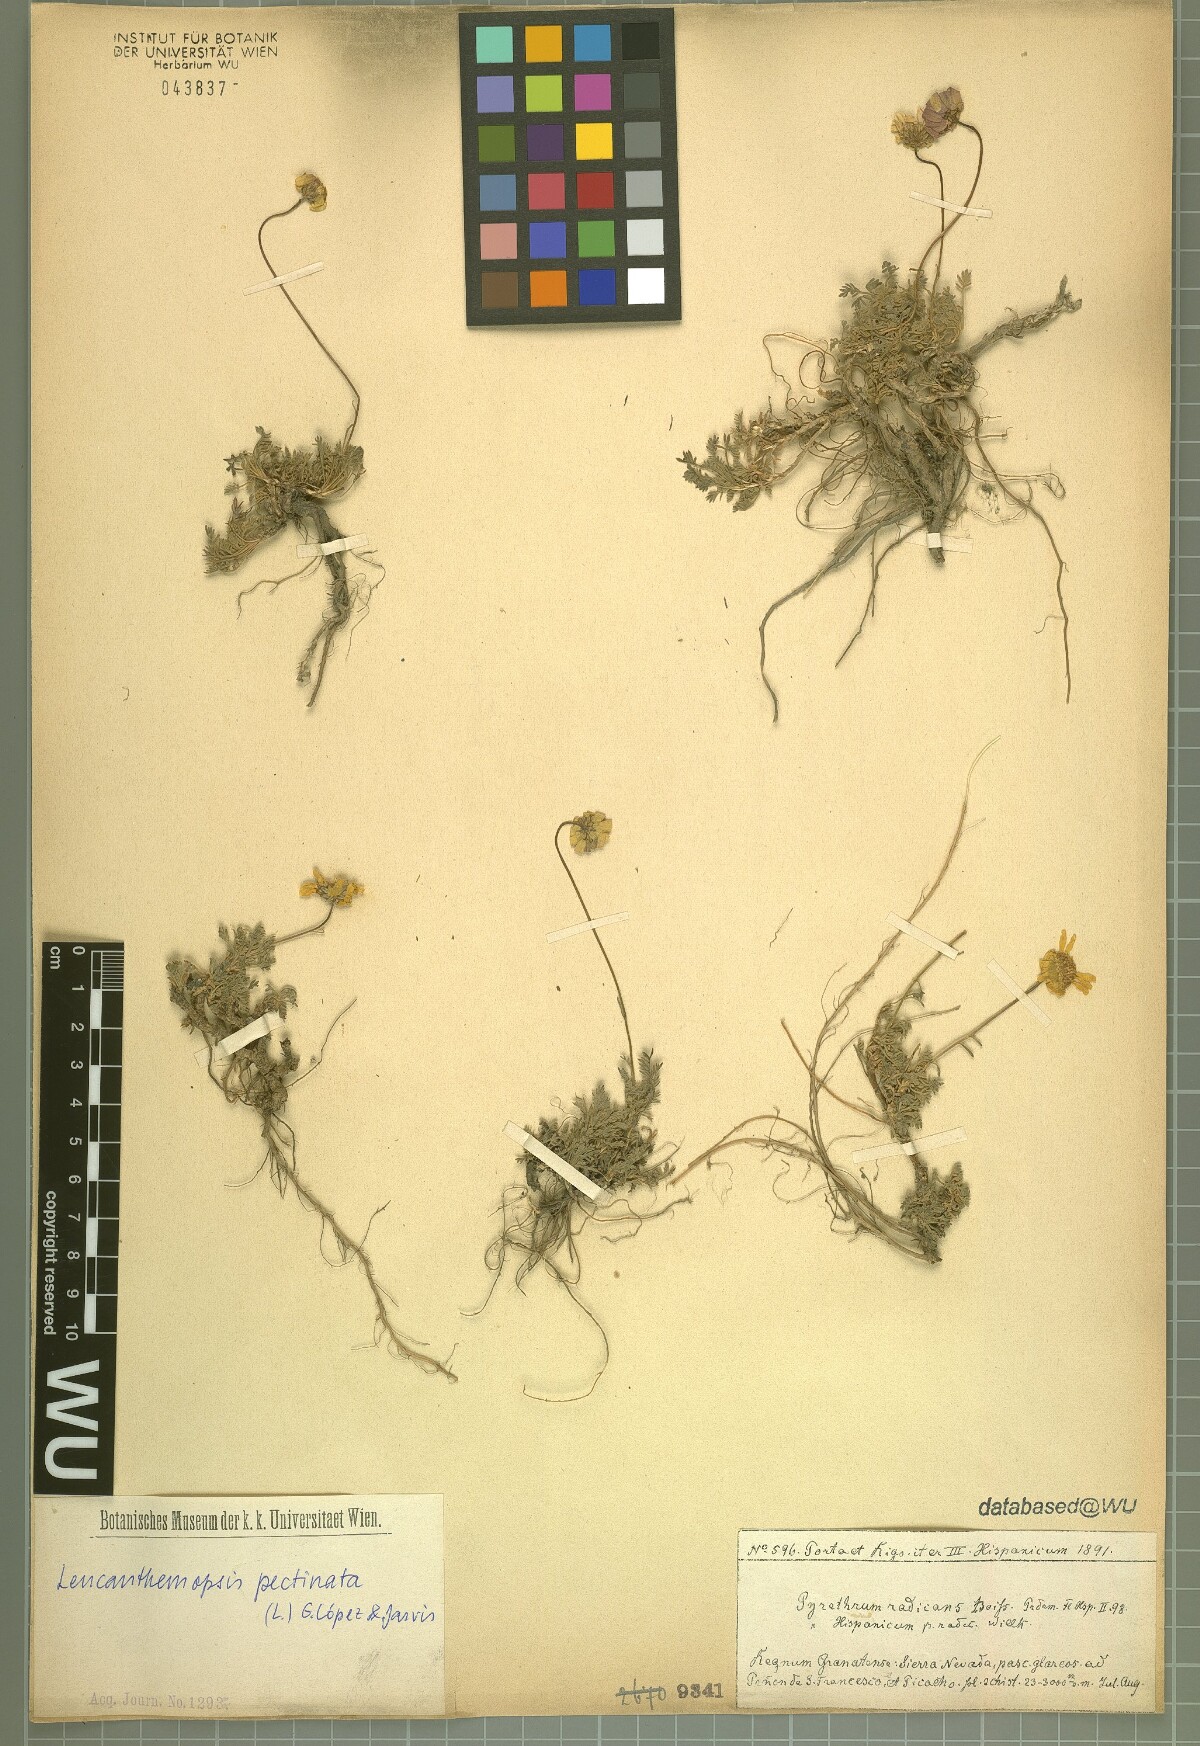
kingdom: Plantae
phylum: Tracheophyta
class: Magnoliopsida
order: Asterales
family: Asteraceae
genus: Leucanthemopsis
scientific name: Leucanthemopsis pectinata
